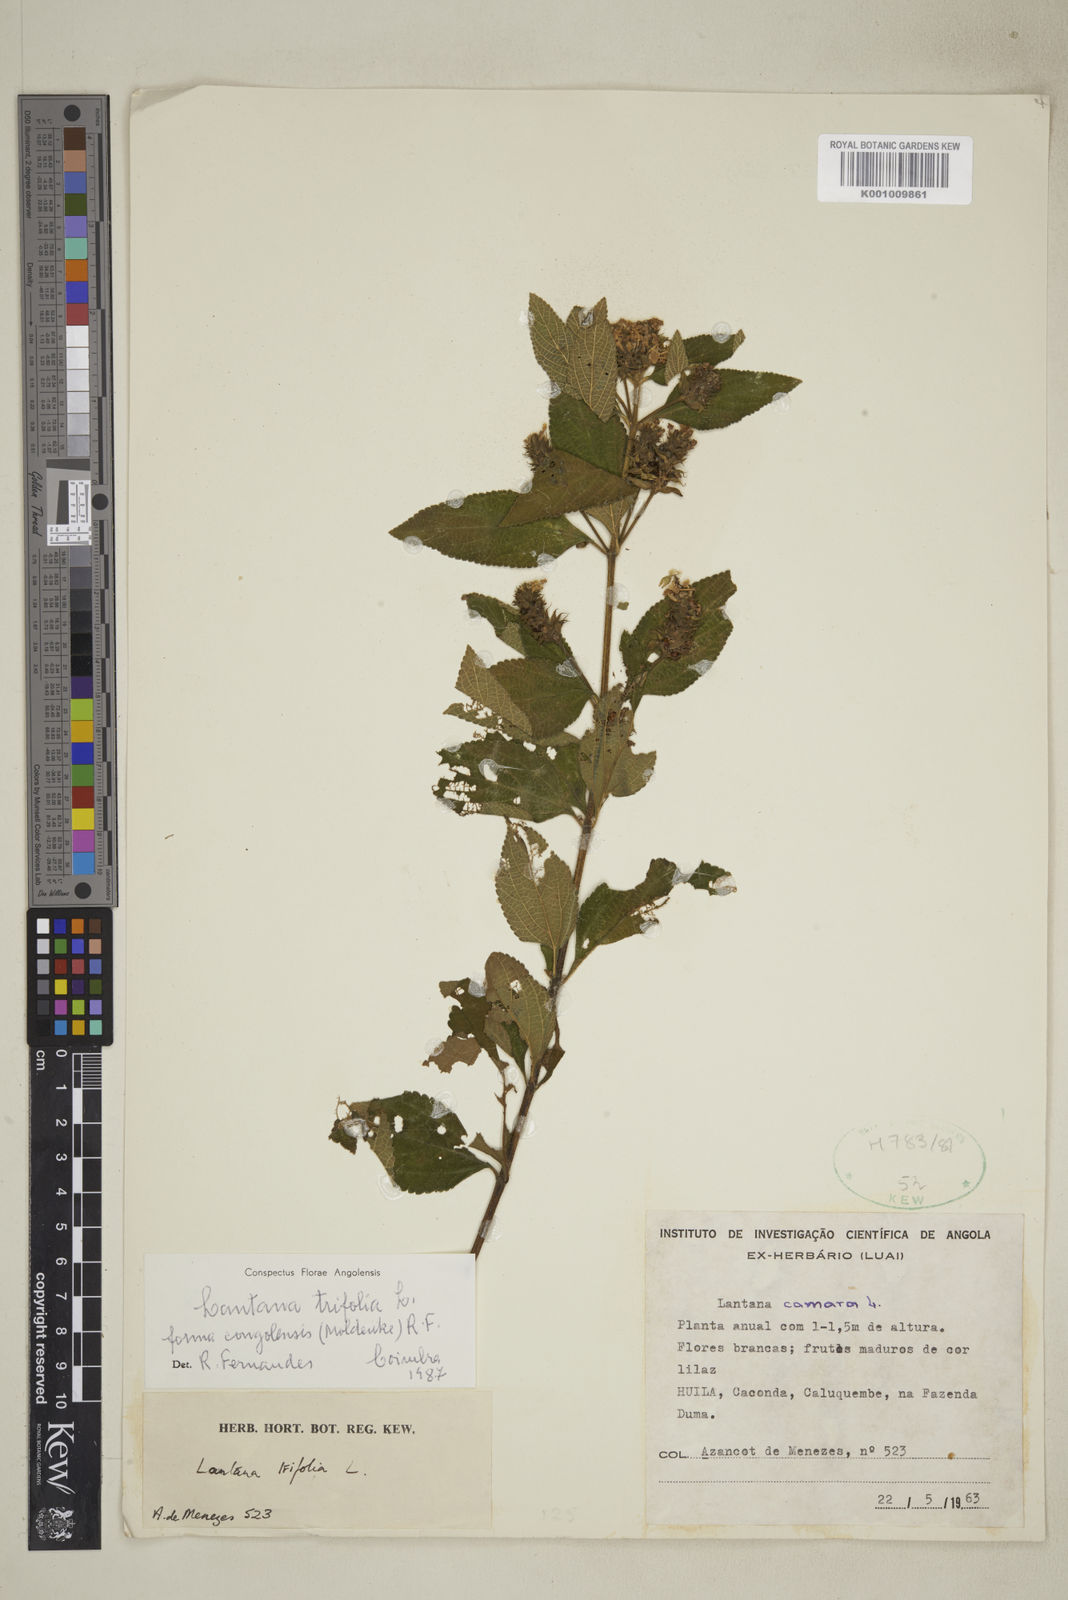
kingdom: Plantae
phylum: Tracheophyta
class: Magnoliopsida
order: Lamiales
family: Verbenaceae
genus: Lantana
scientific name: Lantana trifolia
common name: Sweet-sage
